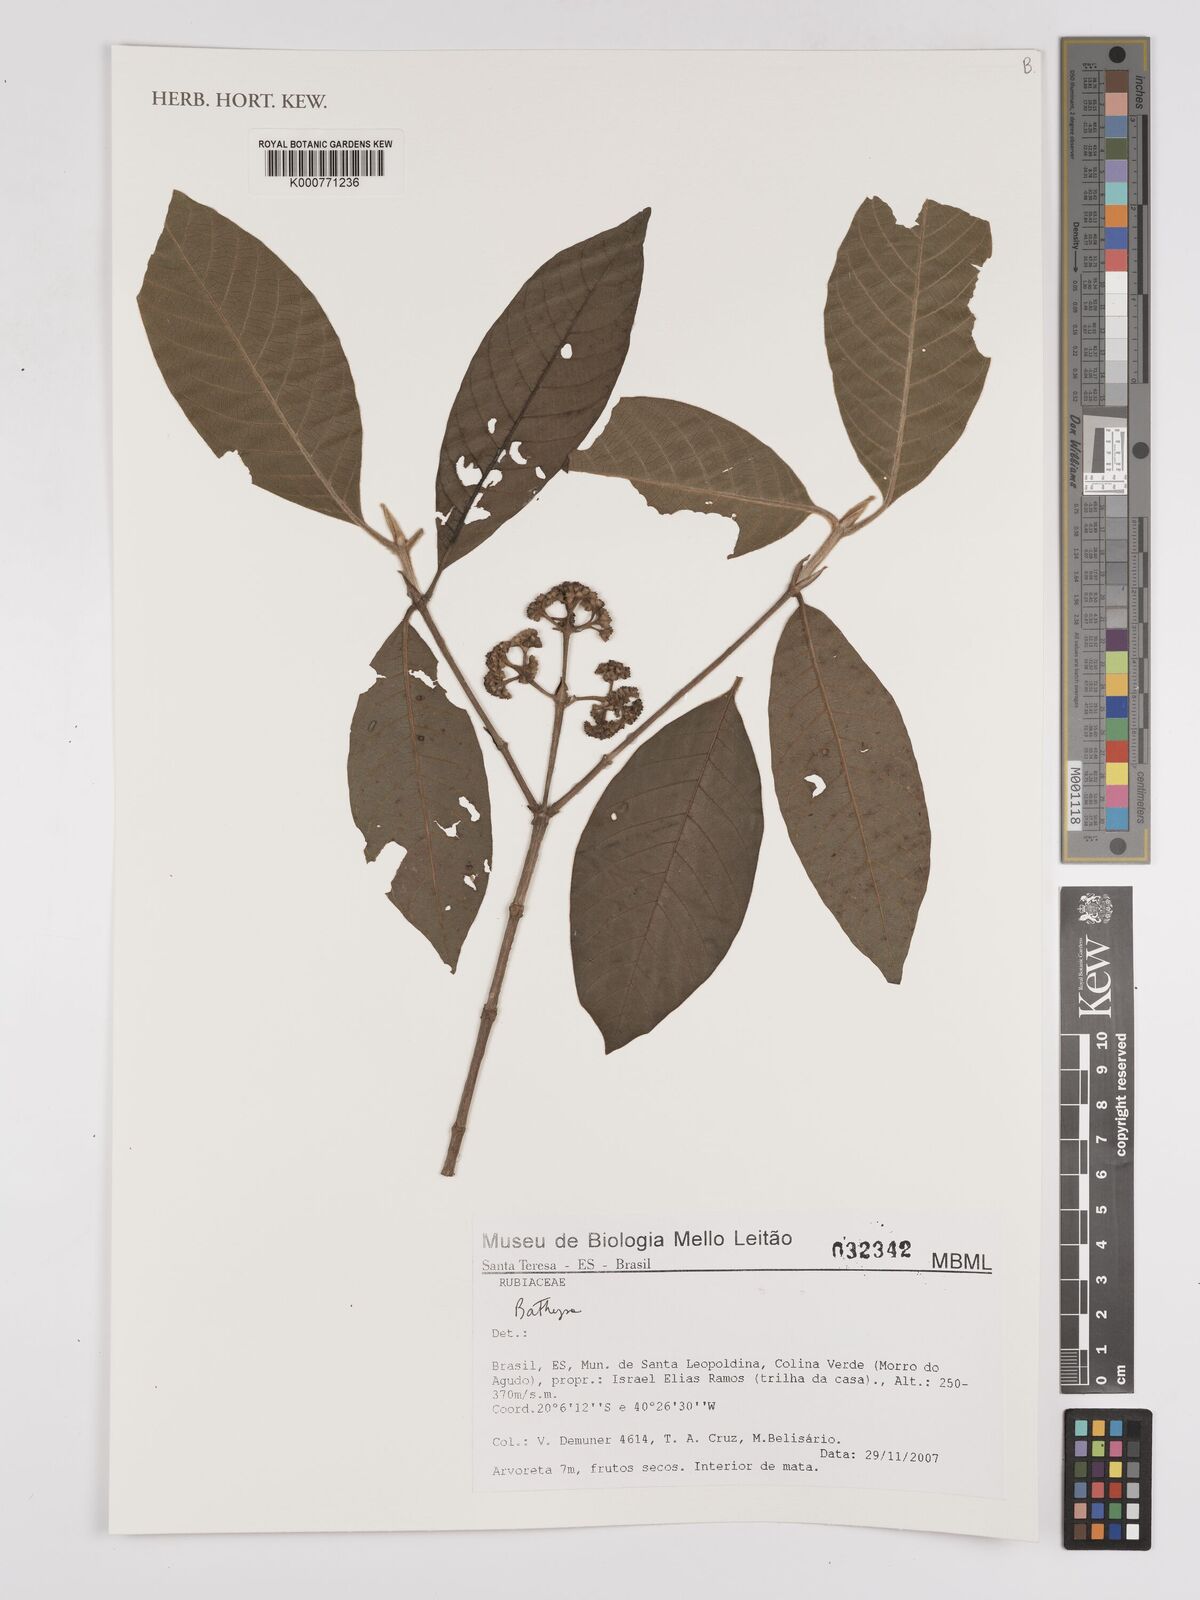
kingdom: Plantae
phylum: Tracheophyta
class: Magnoliopsida
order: Gentianales
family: Rubiaceae
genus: Bathysa
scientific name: Bathysa
